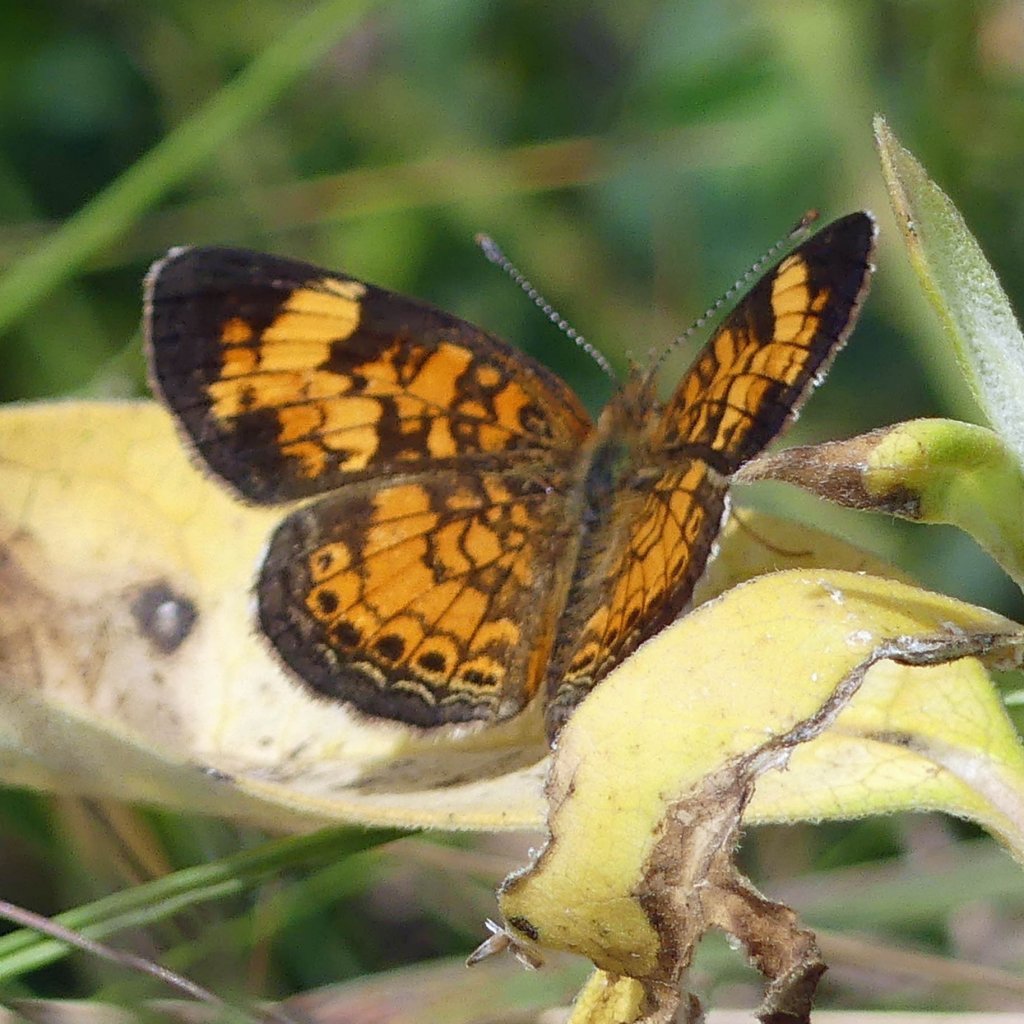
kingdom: Animalia
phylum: Arthropoda
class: Insecta
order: Lepidoptera
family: Nymphalidae
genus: Phyciodes
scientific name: Phyciodes tharos
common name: Pearl Crescent
